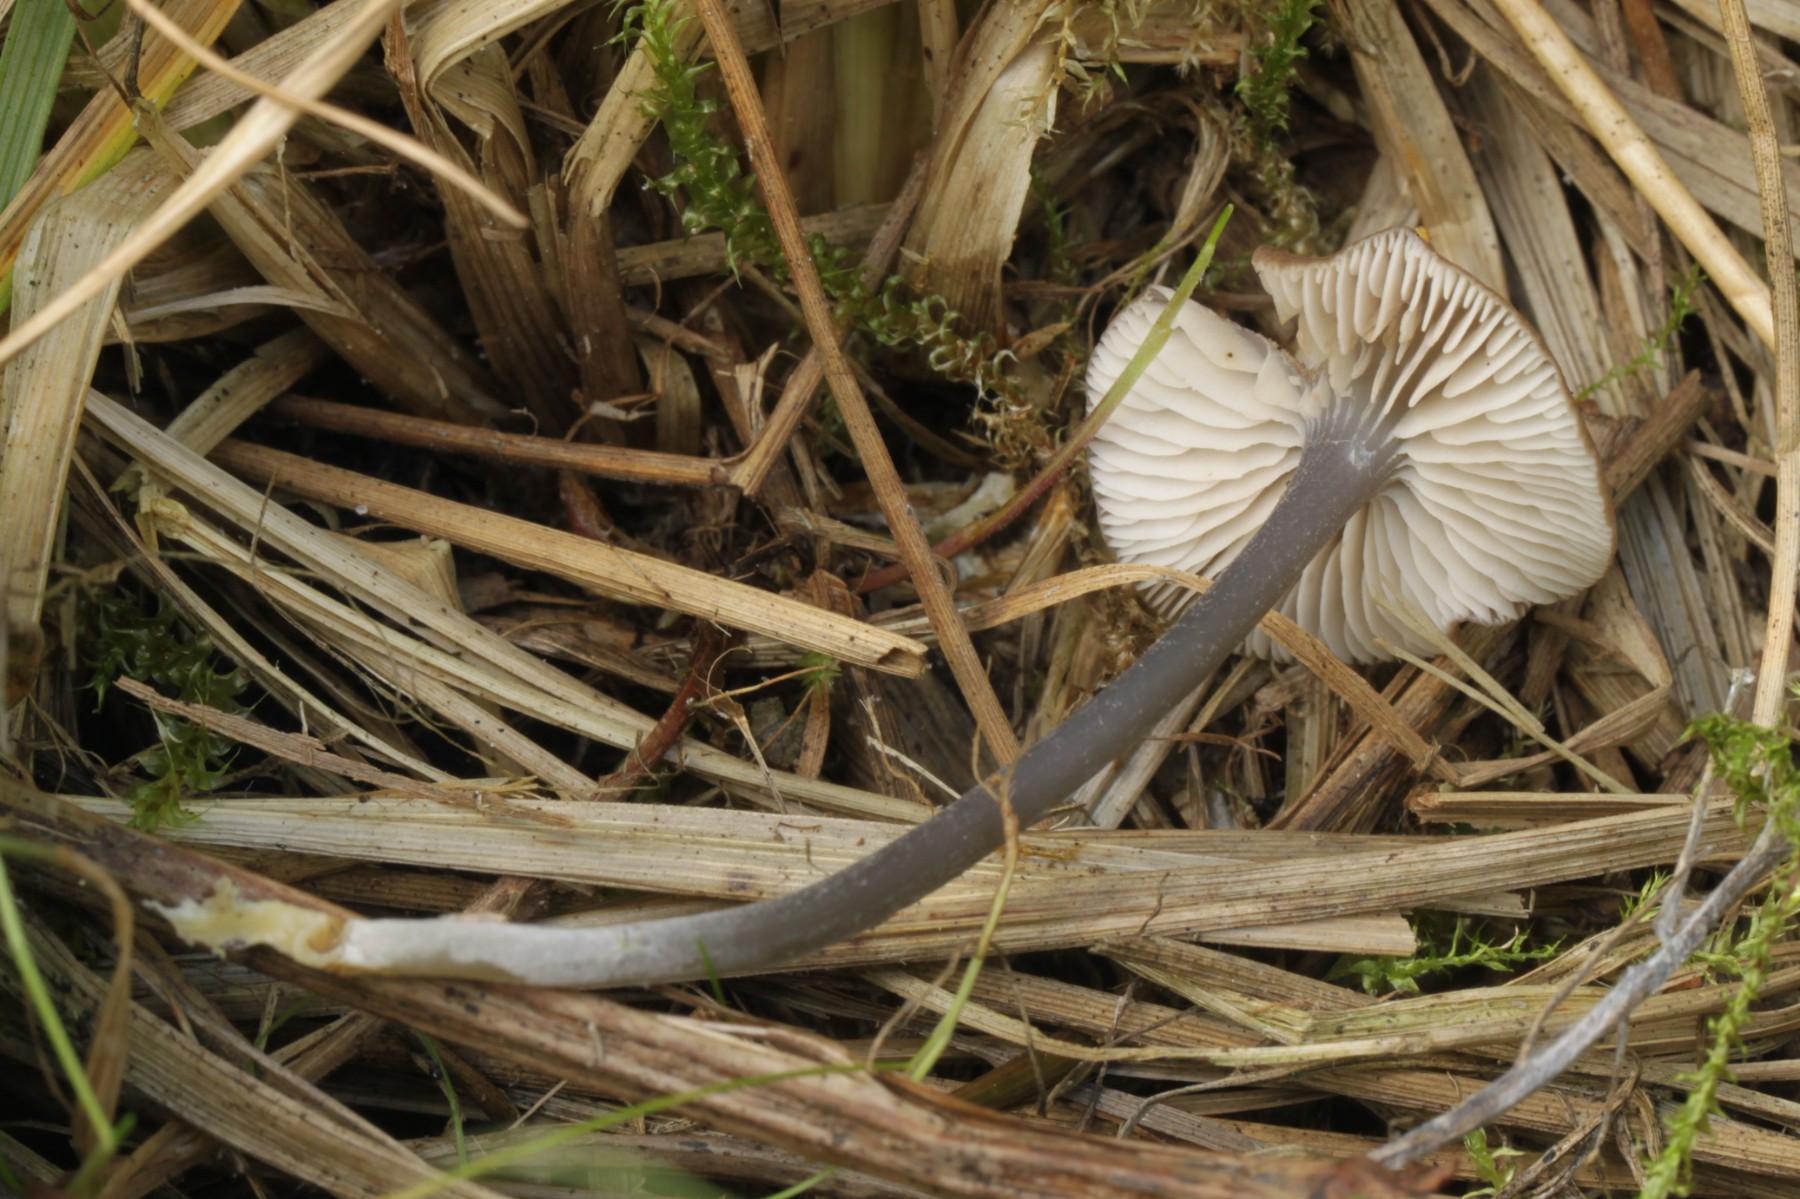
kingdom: Fungi
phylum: Basidiomycota
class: Agaricomycetes
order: Agaricales
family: Entolomataceae
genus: Entoloma
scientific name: Entoloma
